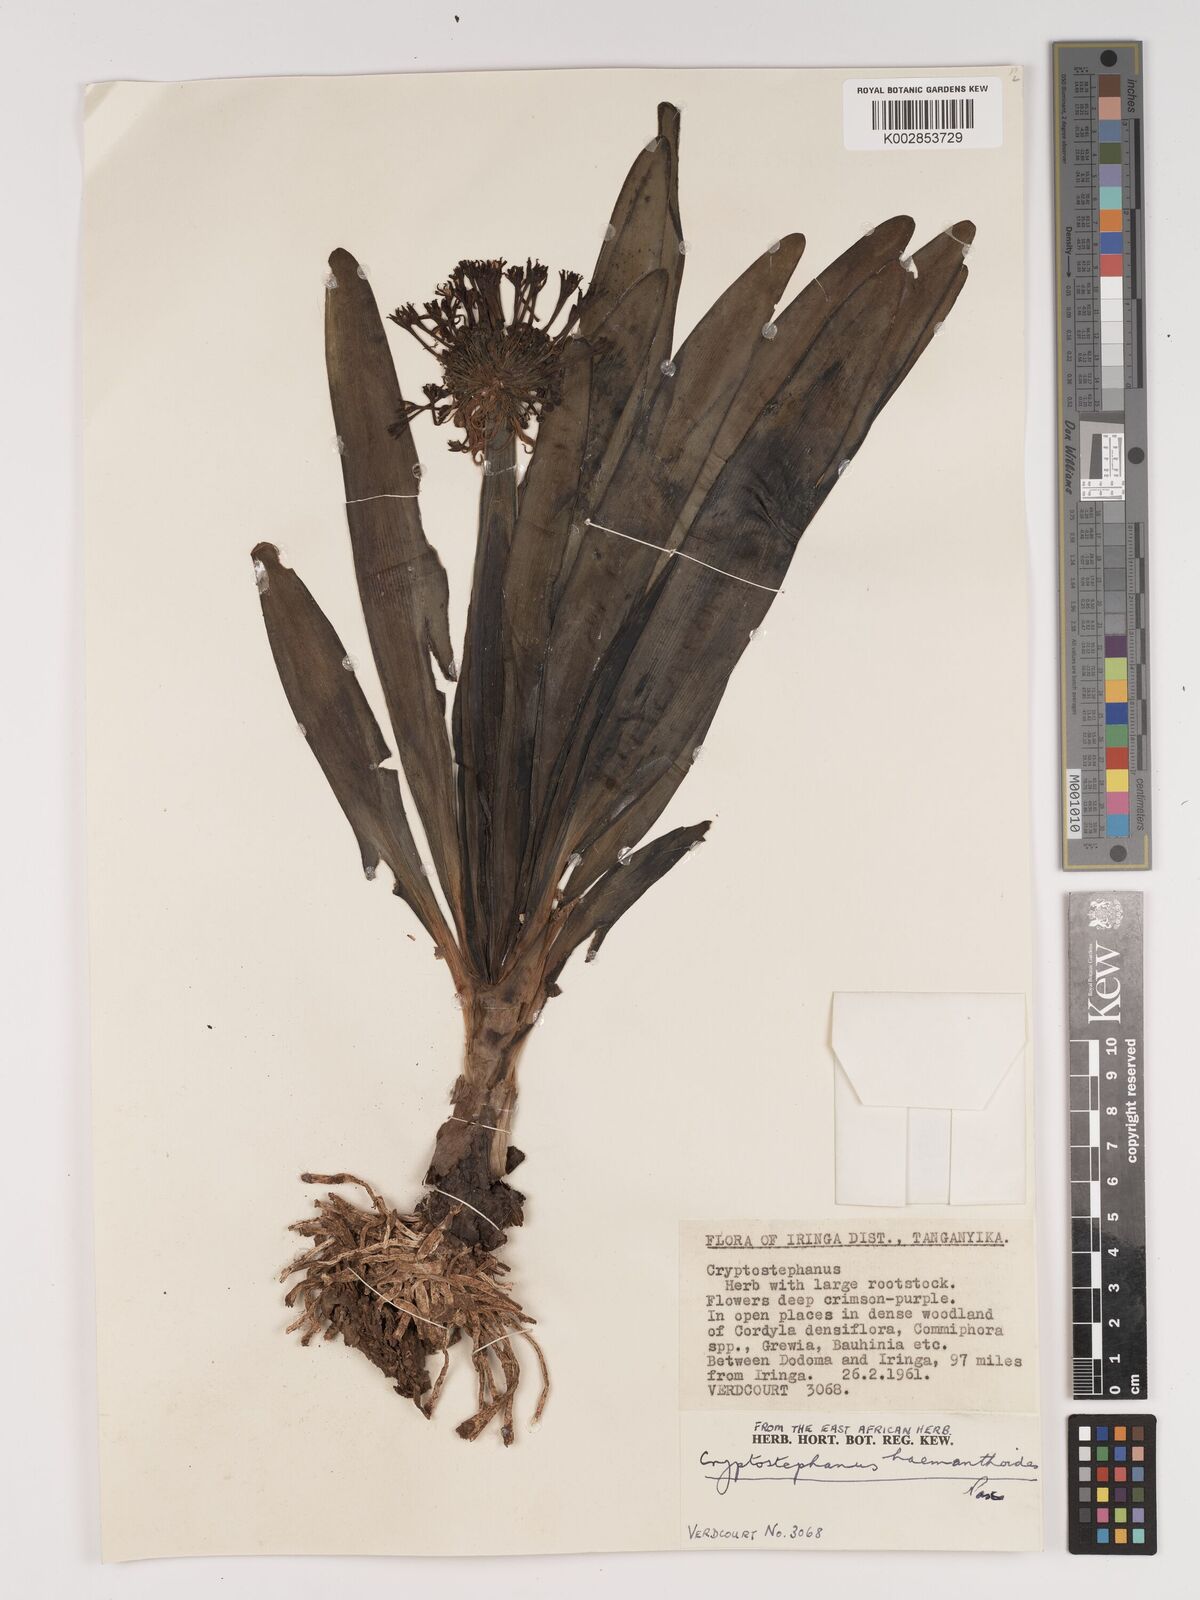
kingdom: Plantae
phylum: Tracheophyta
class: Liliopsida
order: Asparagales
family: Amaryllidaceae
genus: Cryptostephanus
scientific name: Cryptostephanus haemanthoides
